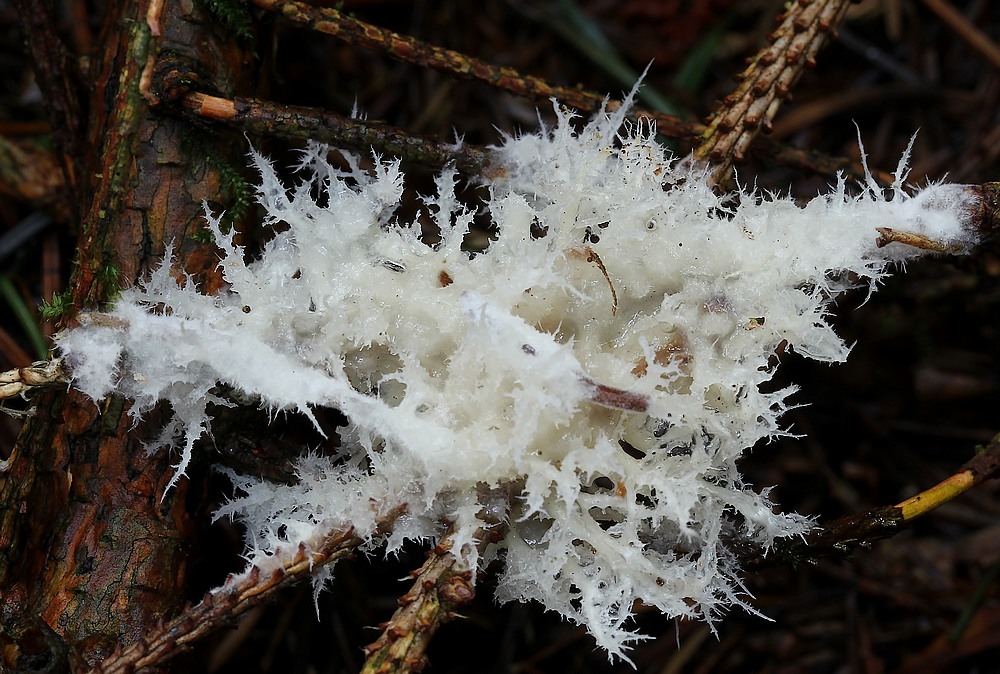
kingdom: Fungi
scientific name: Fungi
